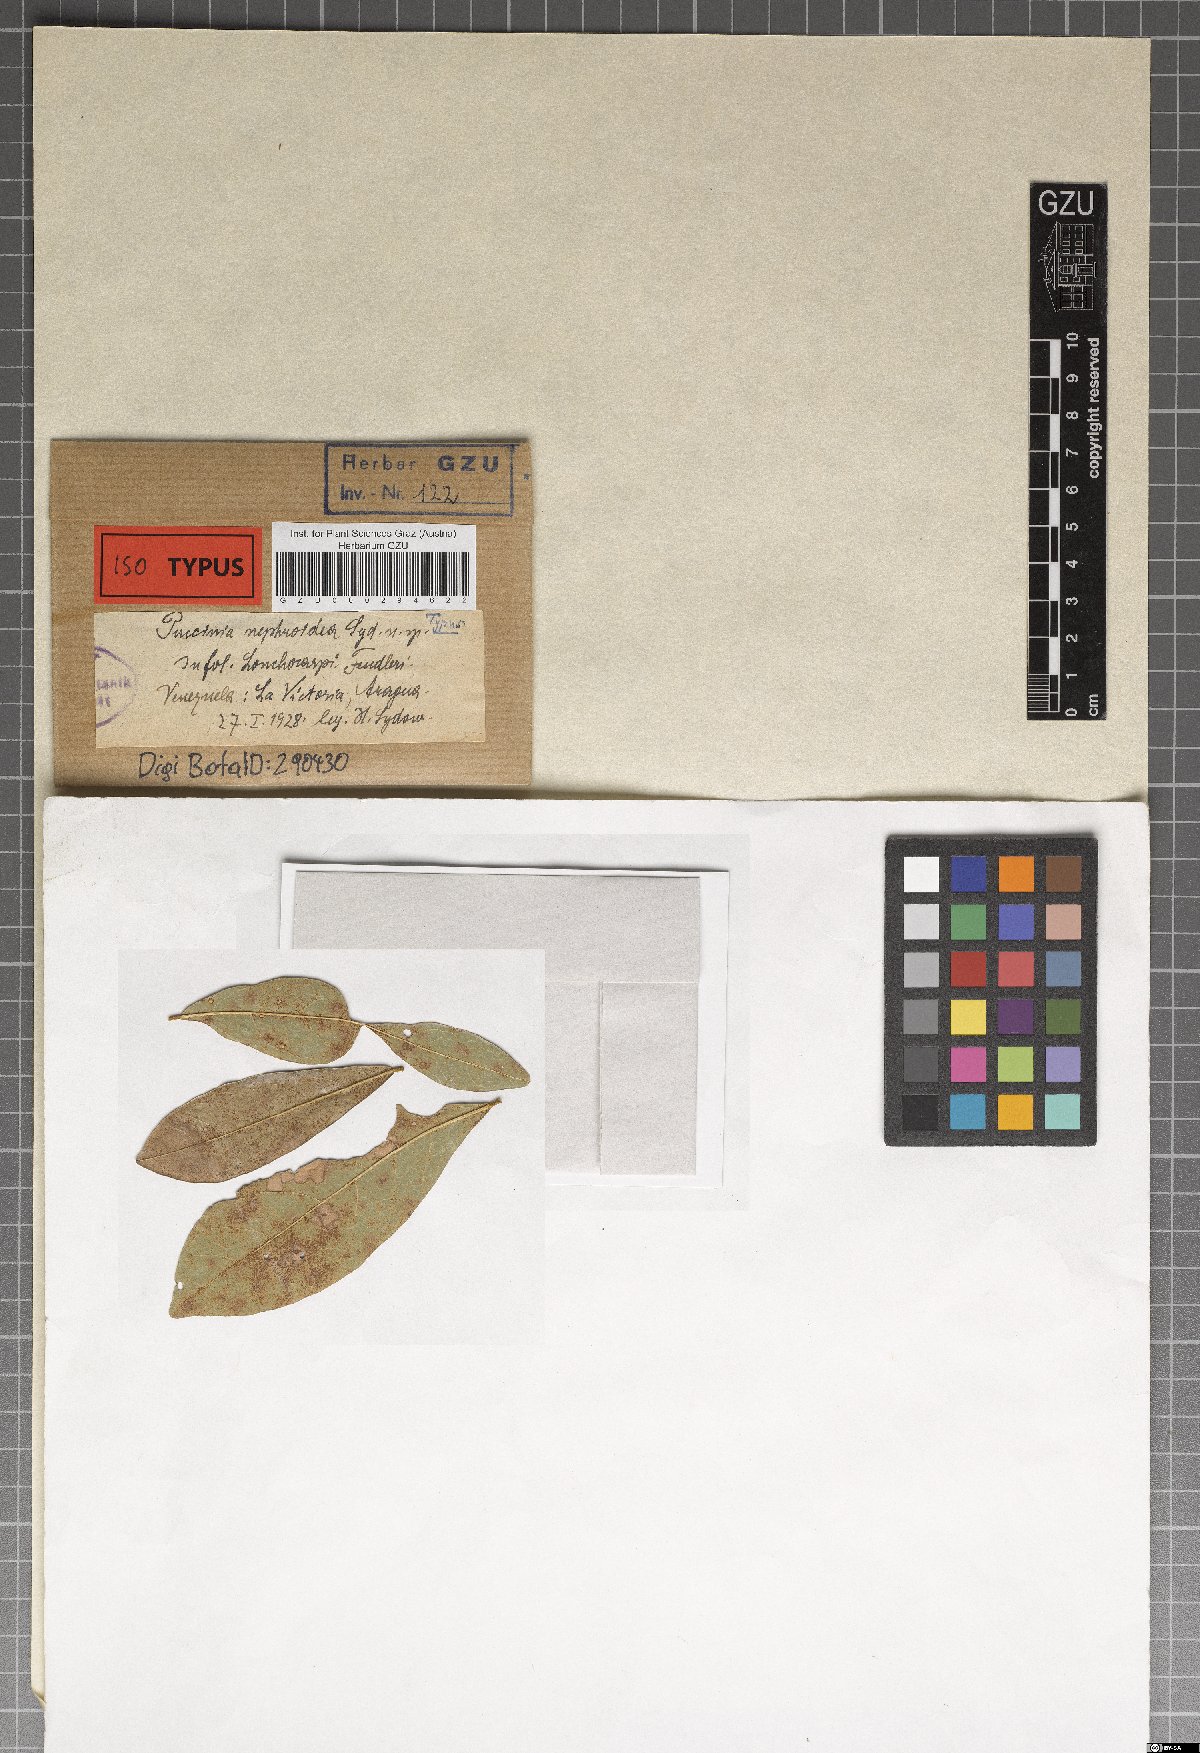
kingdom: Fungi
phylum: Basidiomycota
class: Pucciniomycetes
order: Pucciniales
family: Uropyxidaceae
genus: Sorataea
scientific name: Sorataea nephroidea
